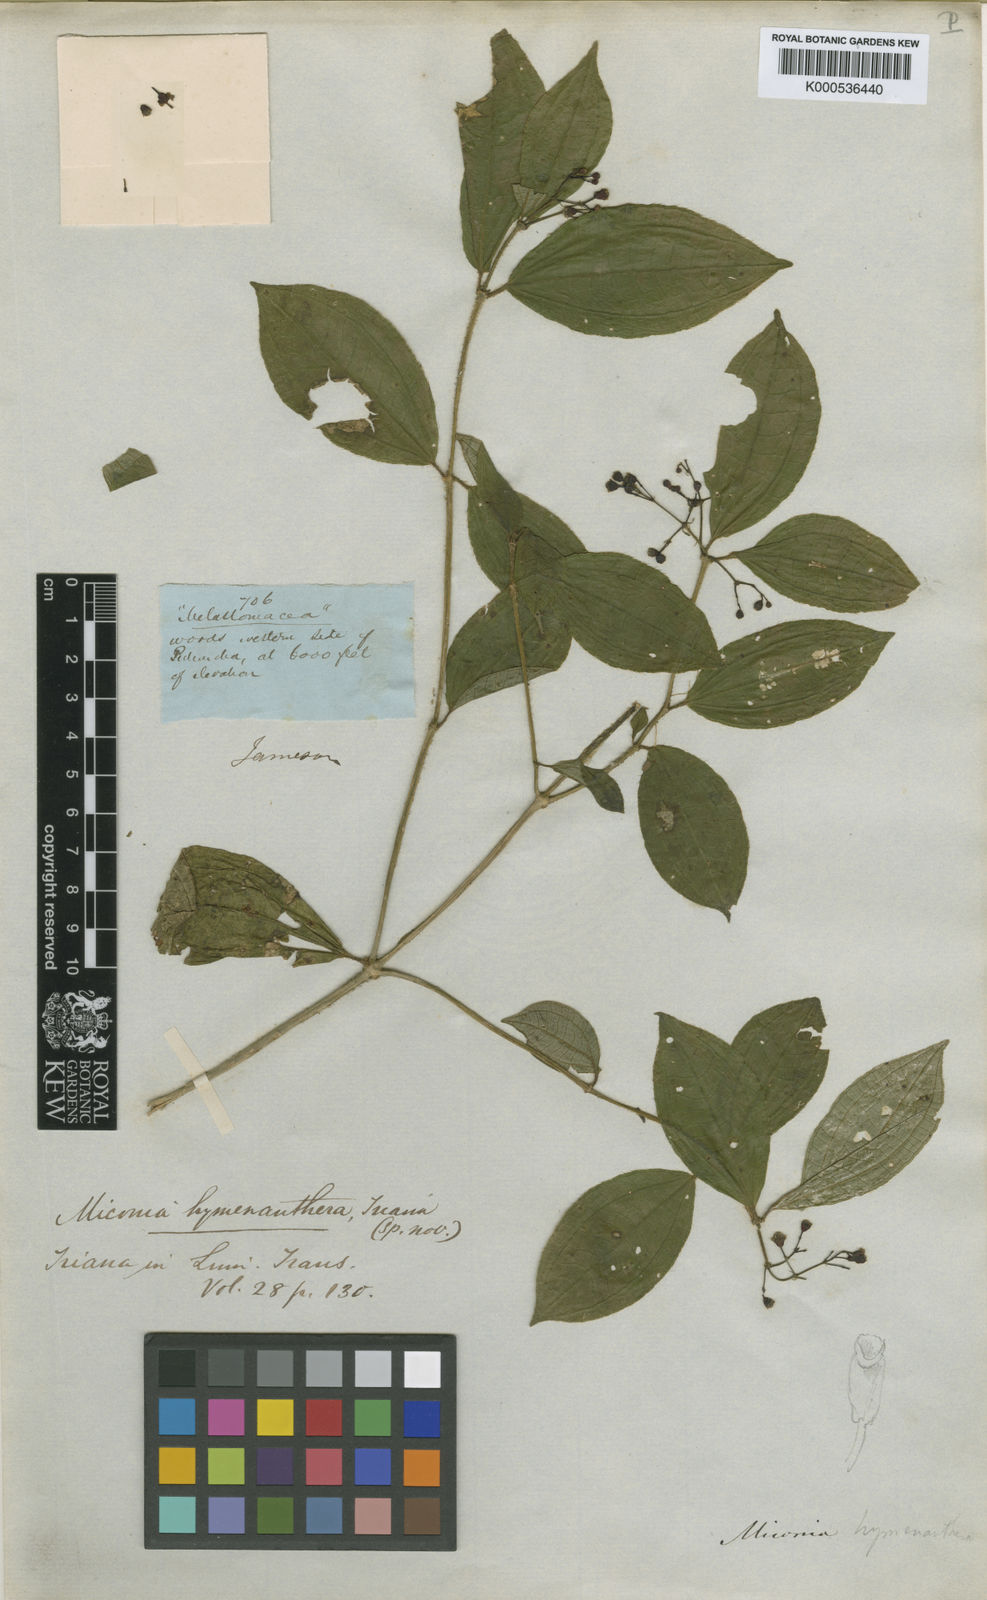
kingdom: Plantae
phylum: Tracheophyta
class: Magnoliopsida
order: Myrtales
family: Melastomataceae
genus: Miconia
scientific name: Miconia hymenanthera
